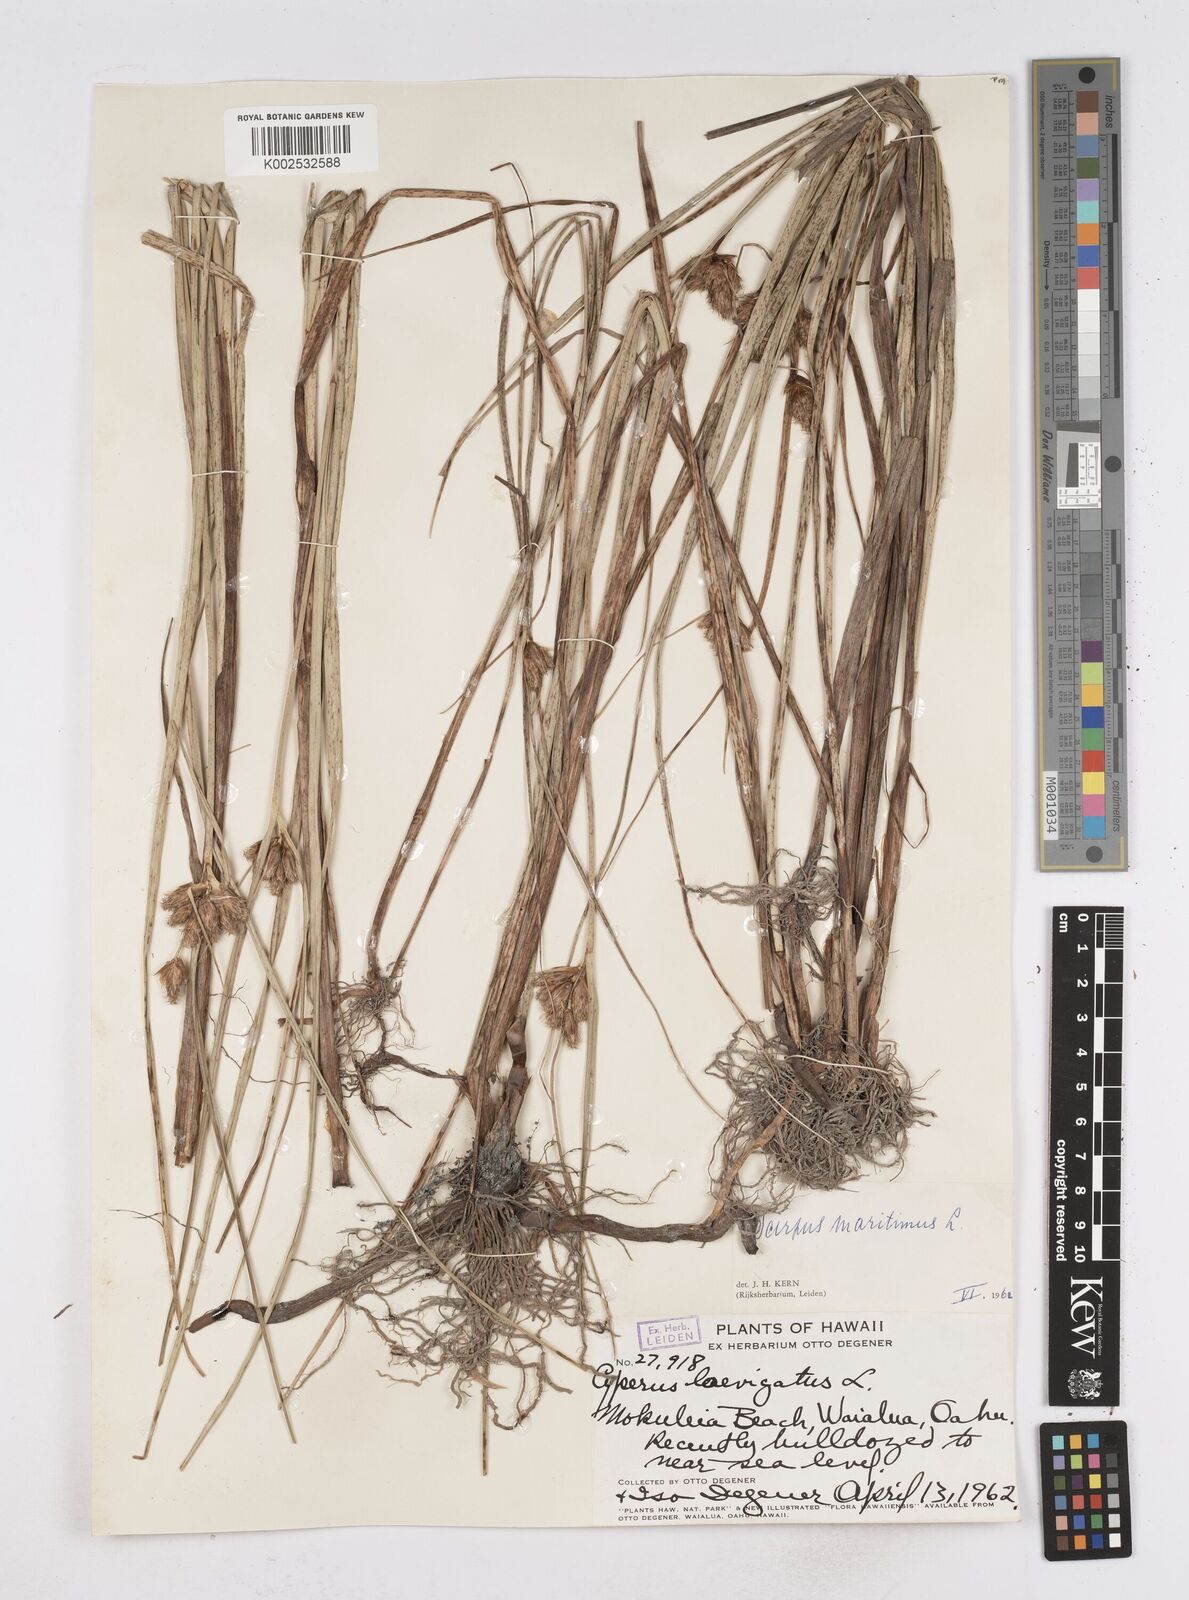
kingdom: Plantae
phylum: Tracheophyta
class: Liliopsida
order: Poales
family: Cyperaceae
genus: Bolboschoenus
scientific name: Bolboschoenus maritimus
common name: Sea club-rush
